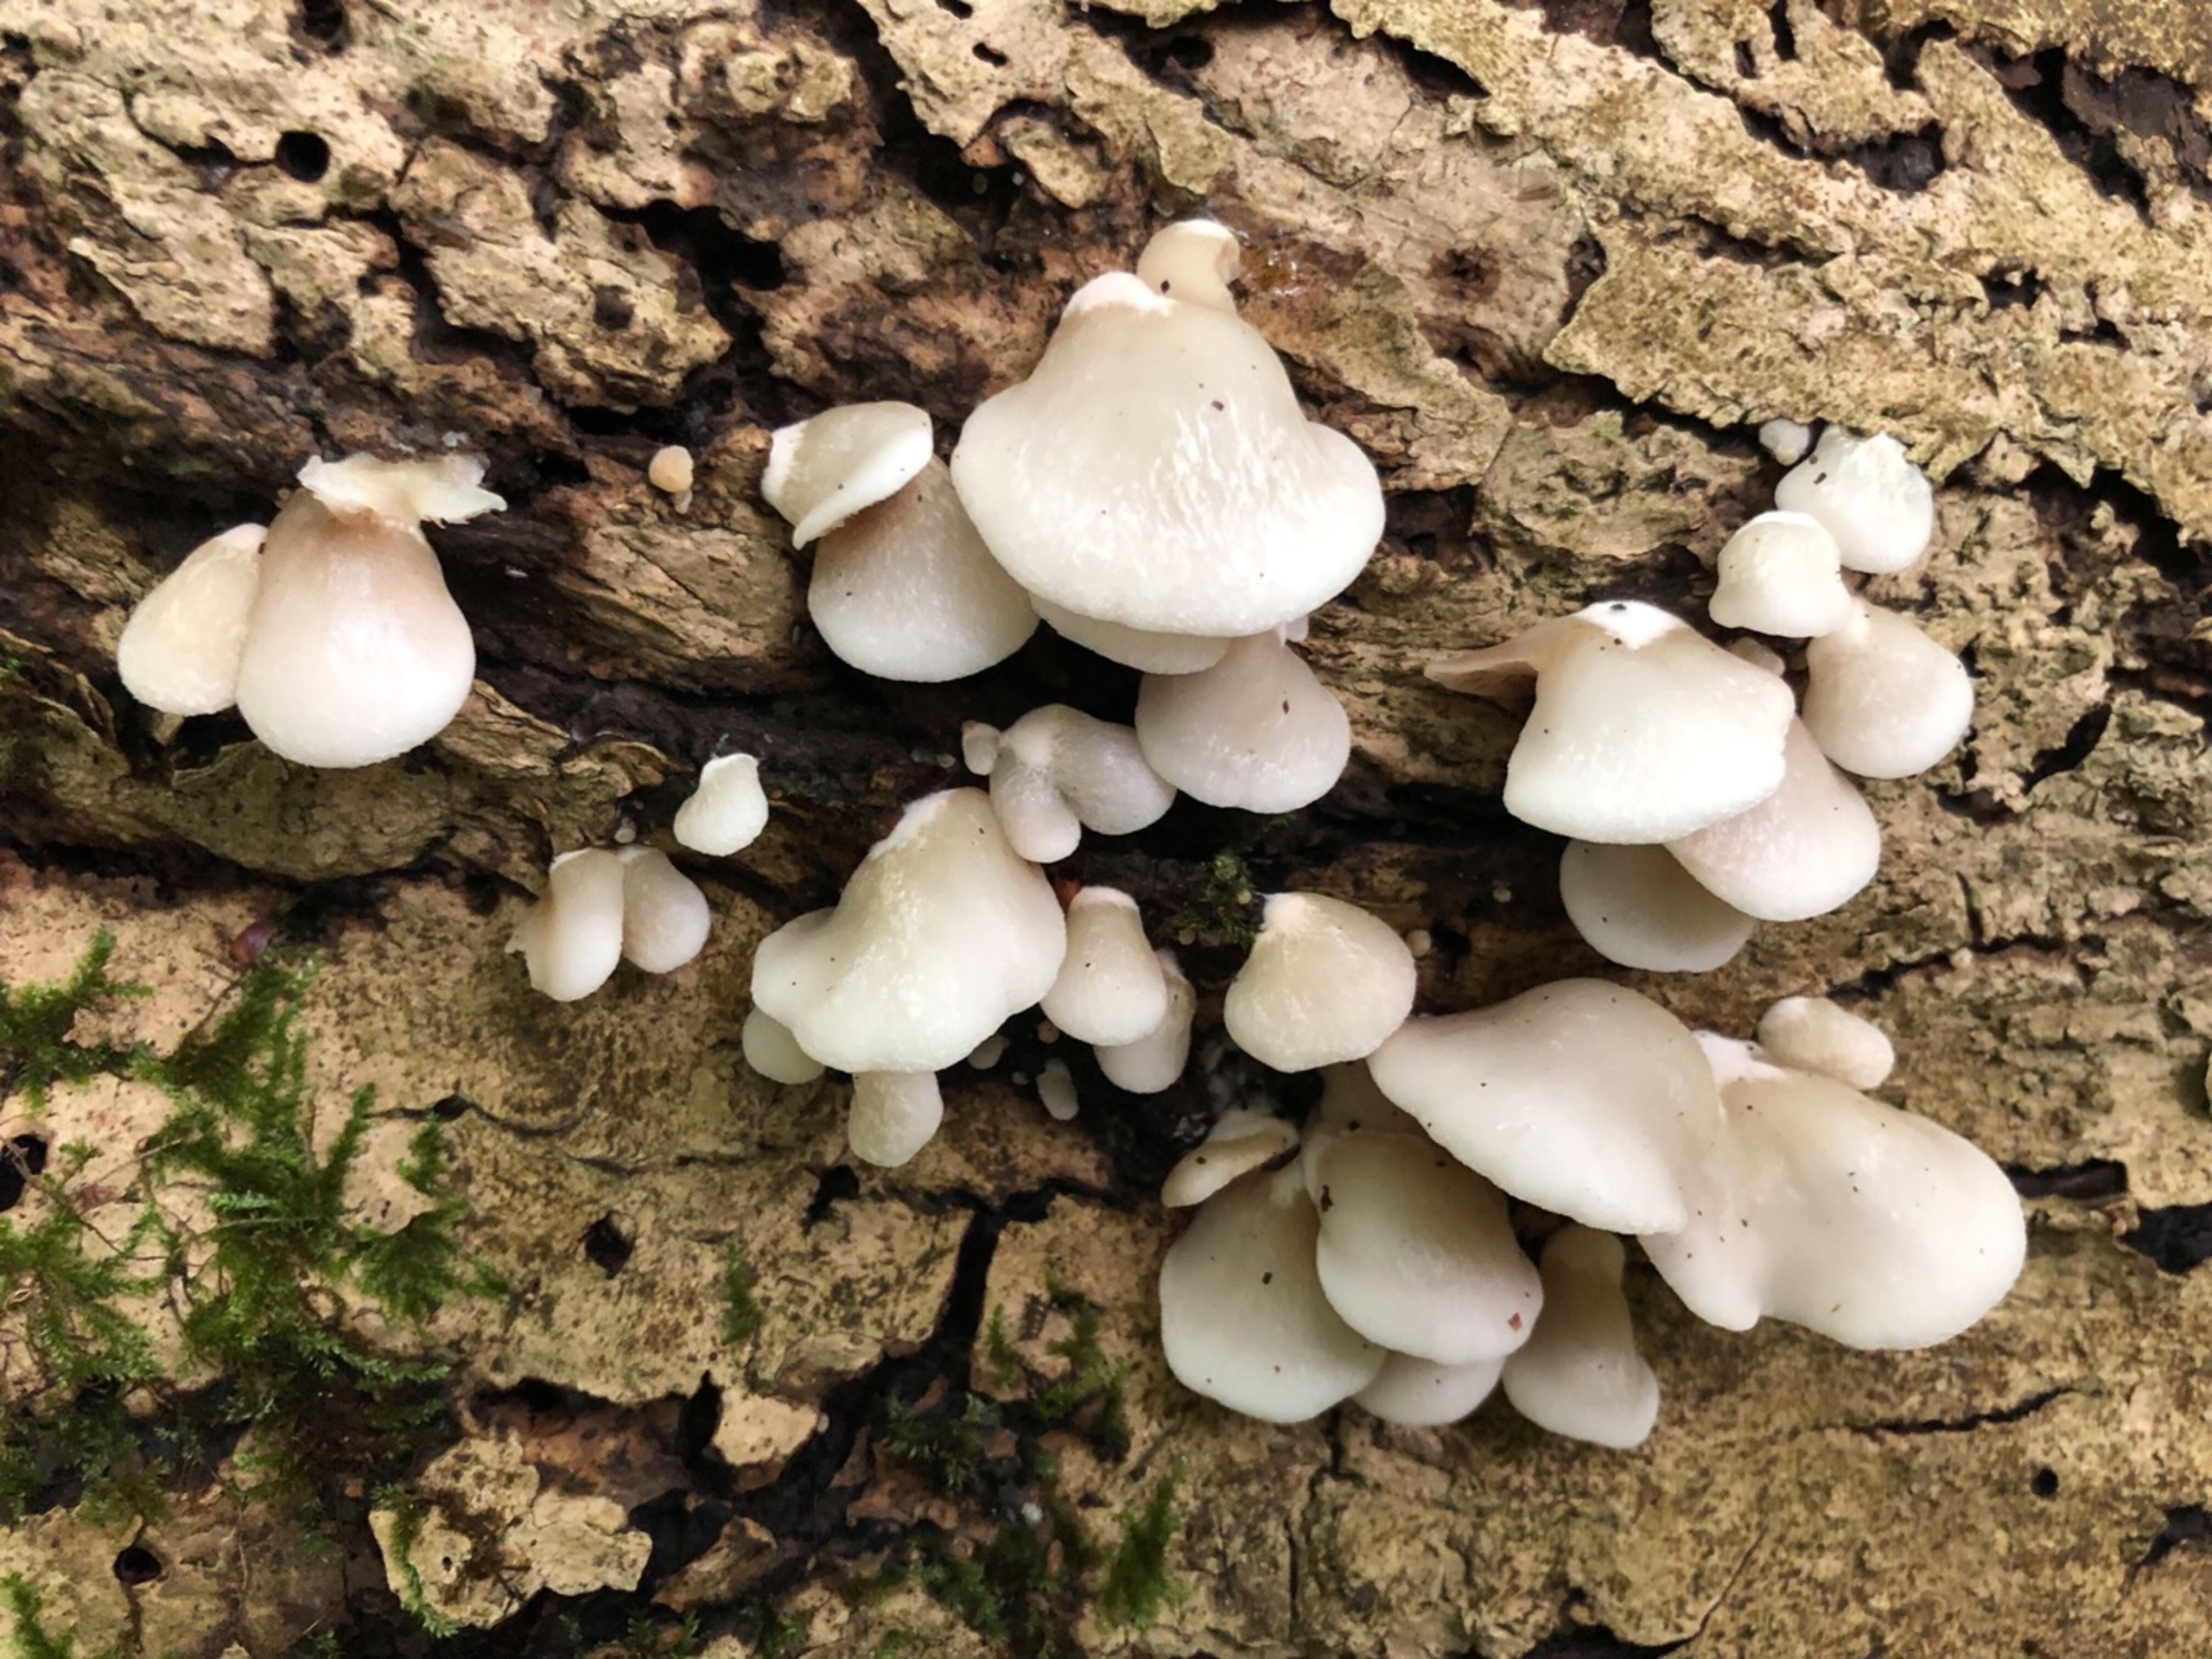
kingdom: Fungi
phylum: Basidiomycota
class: Agaricomycetes
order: Agaricales
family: Crepidotaceae
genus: Crepidotus
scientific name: Crepidotus
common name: Muslingesvamp
